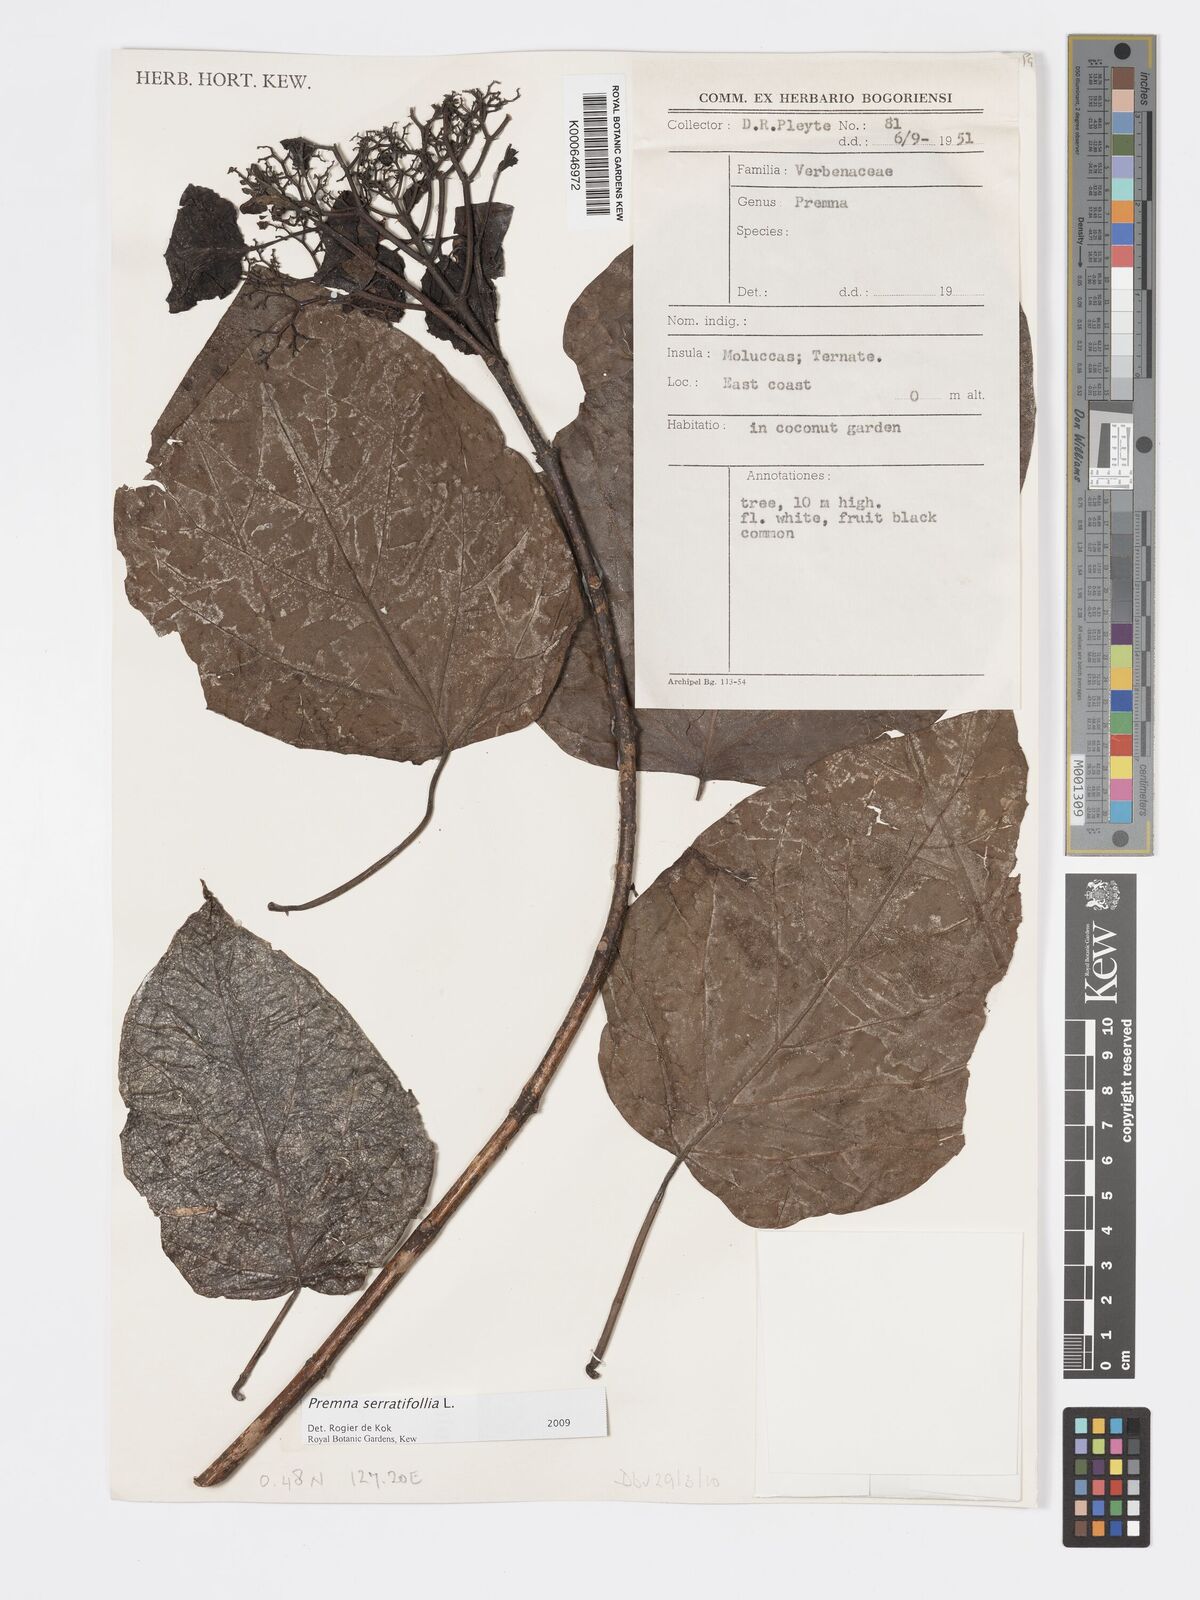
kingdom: Plantae
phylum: Tracheophyta
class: Magnoliopsida
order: Lamiales
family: Lamiaceae
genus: Premna
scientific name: Premna serratifolia
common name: Bastard guelder
